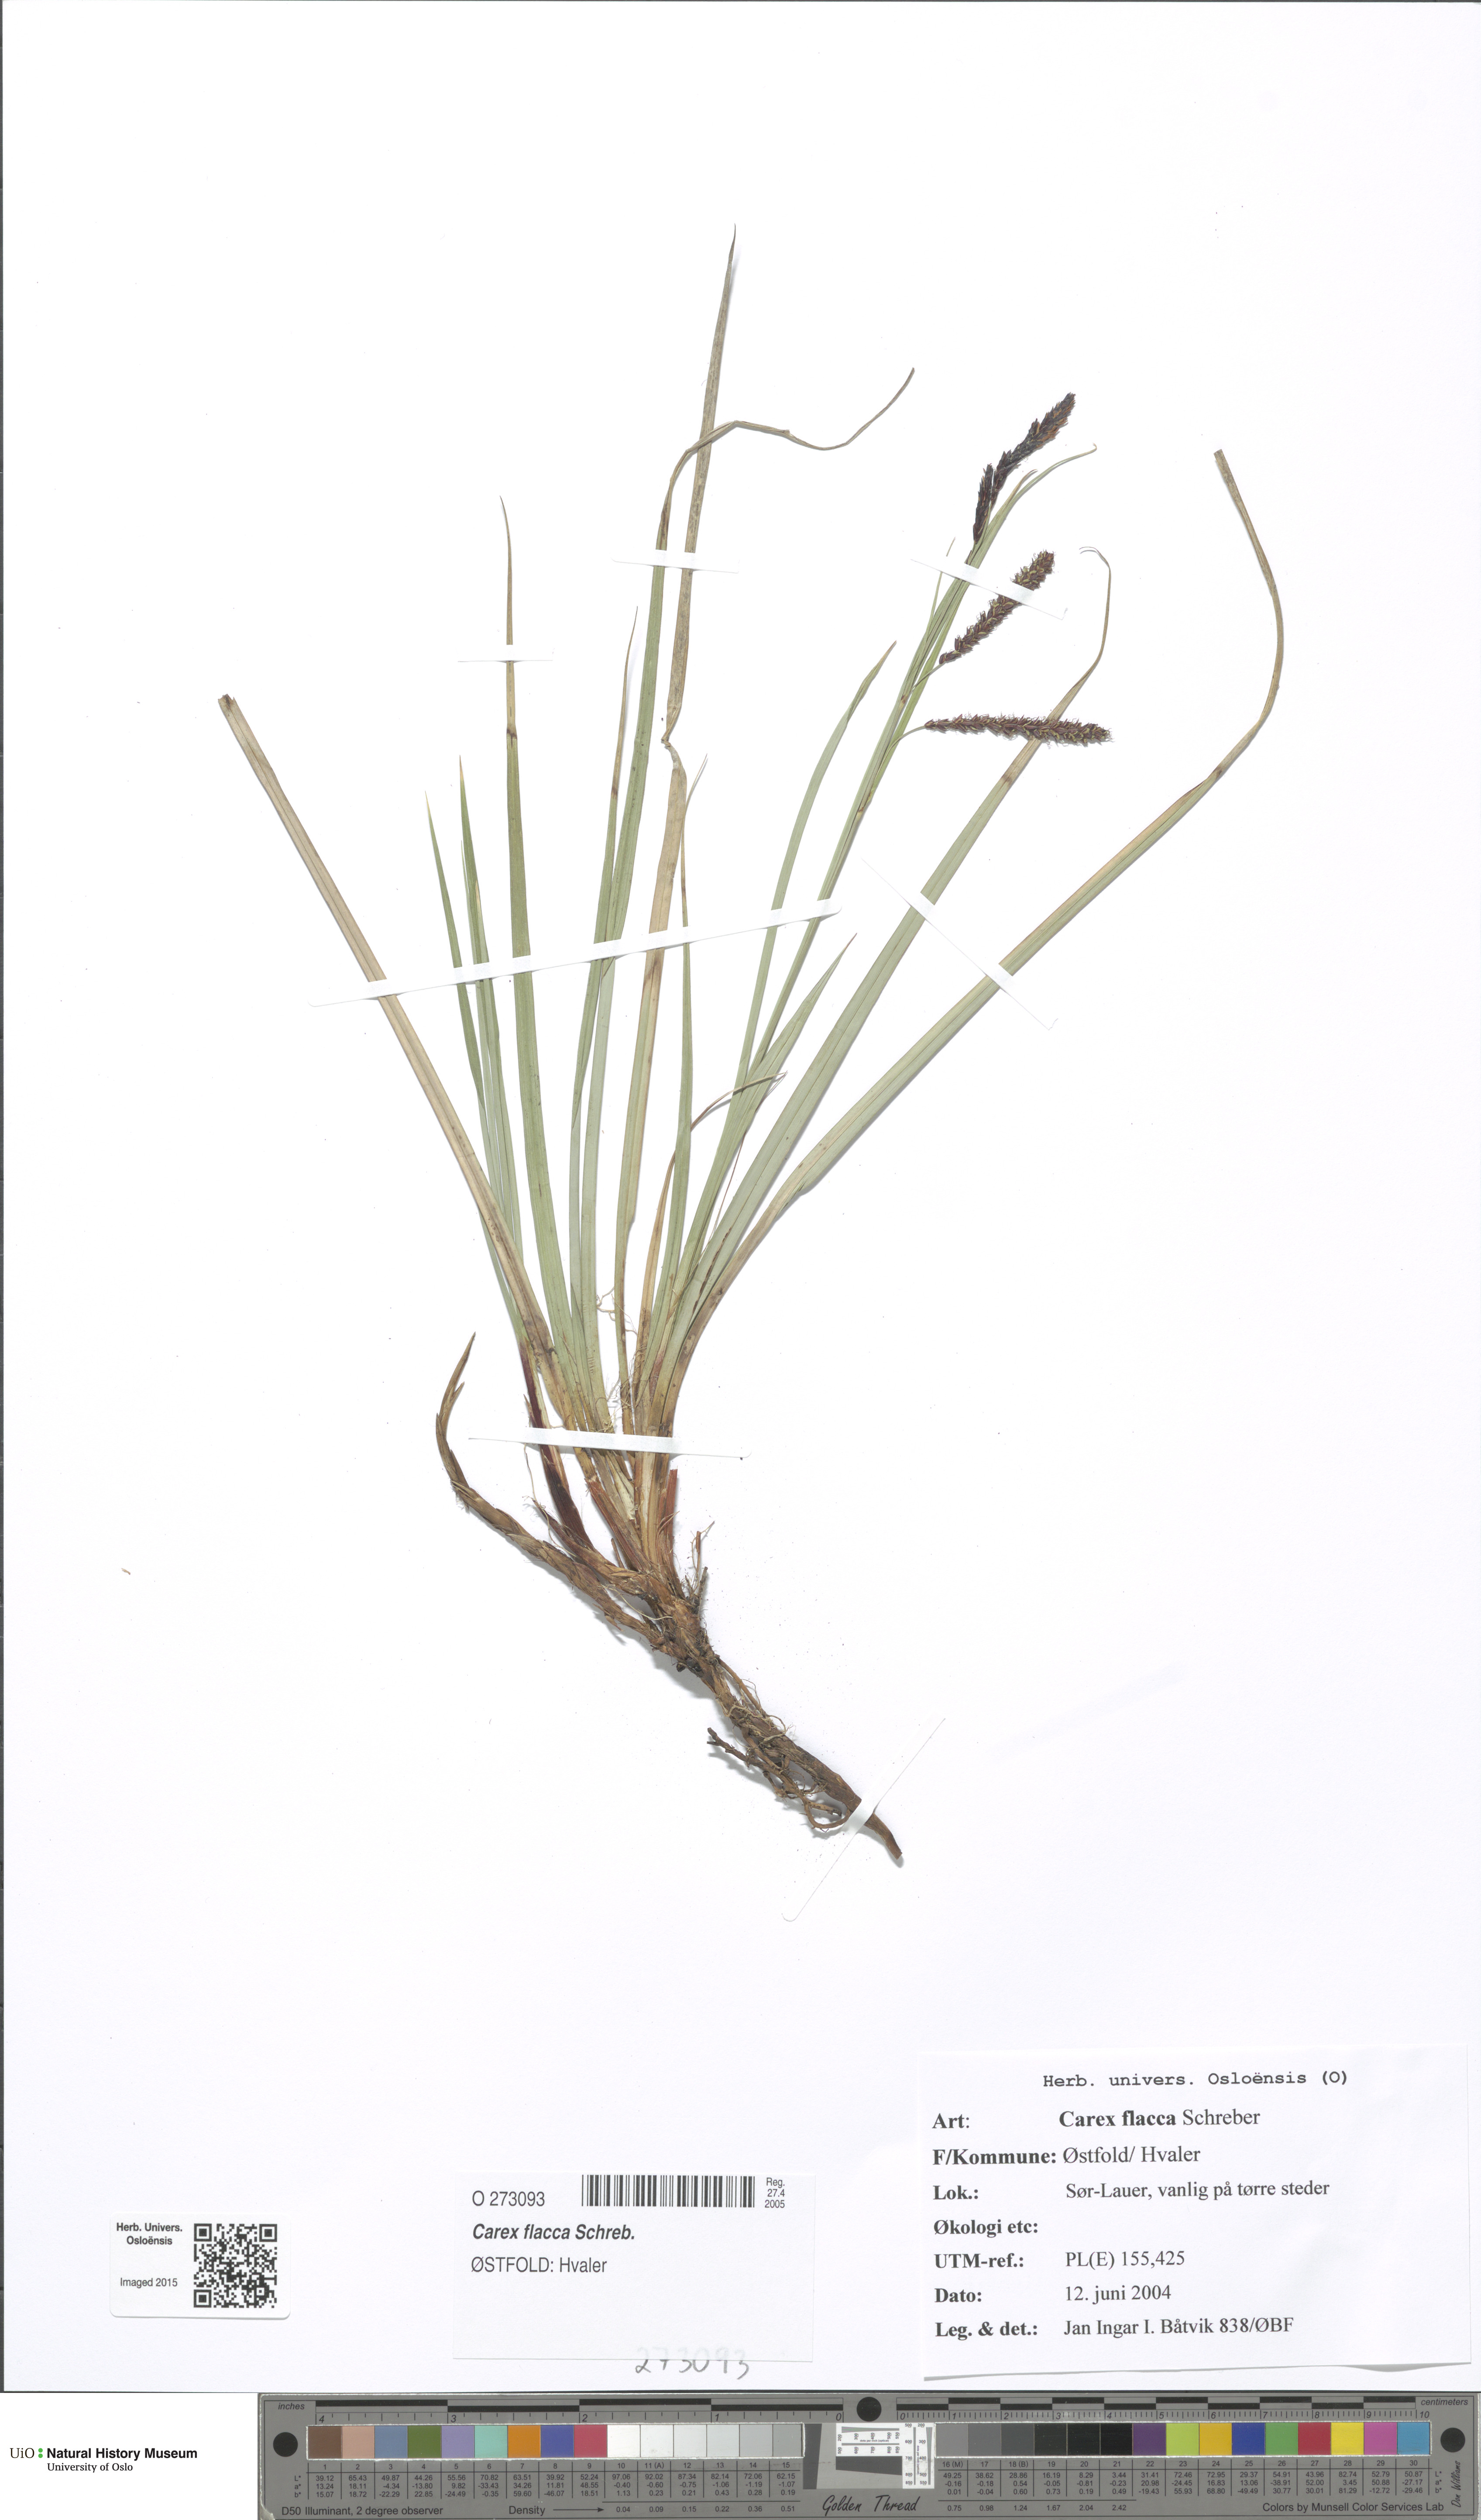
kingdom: Plantae
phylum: Tracheophyta
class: Liliopsida
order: Poales
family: Cyperaceae
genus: Carex
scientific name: Carex flacca
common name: Glaucous sedge
